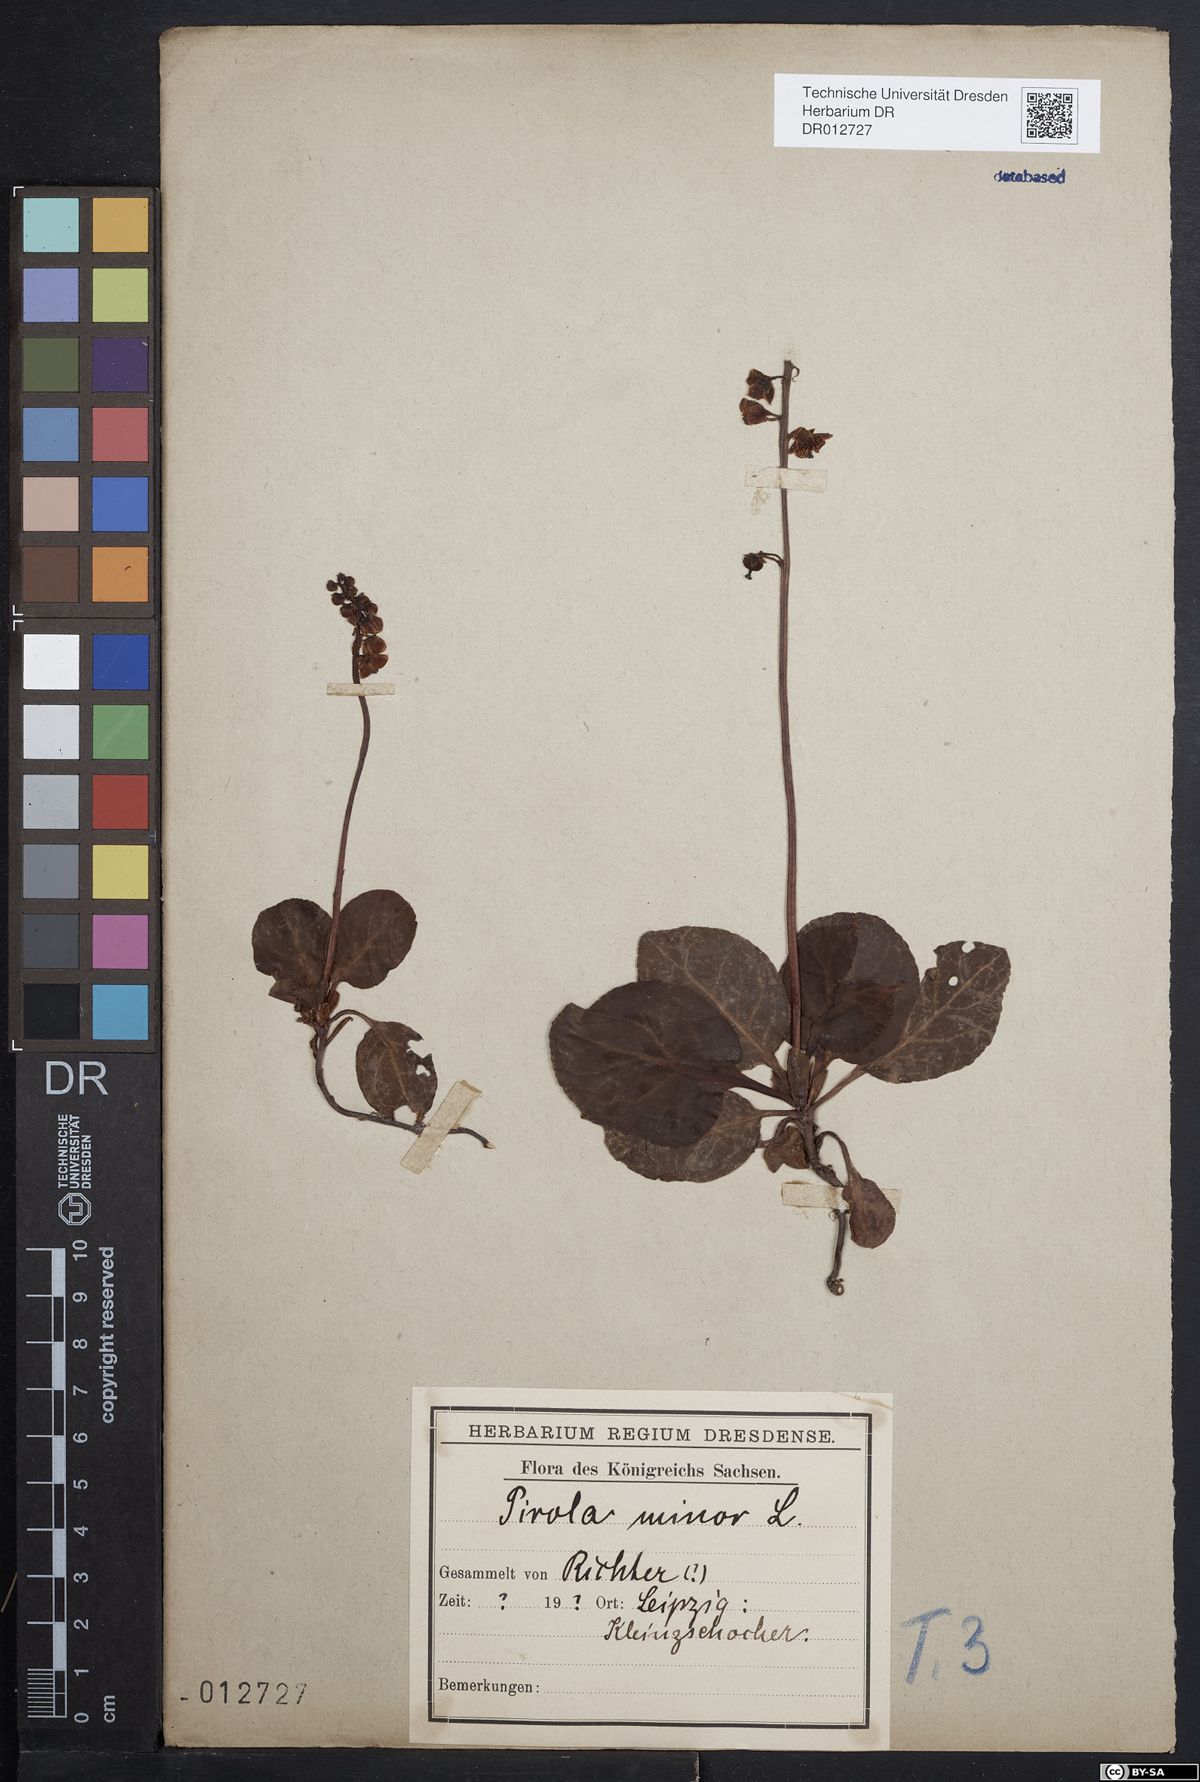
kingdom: Plantae
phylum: Tracheophyta
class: Magnoliopsida
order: Ericales
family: Ericaceae
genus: Pyrola
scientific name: Pyrola minor
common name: Common wintergreen
